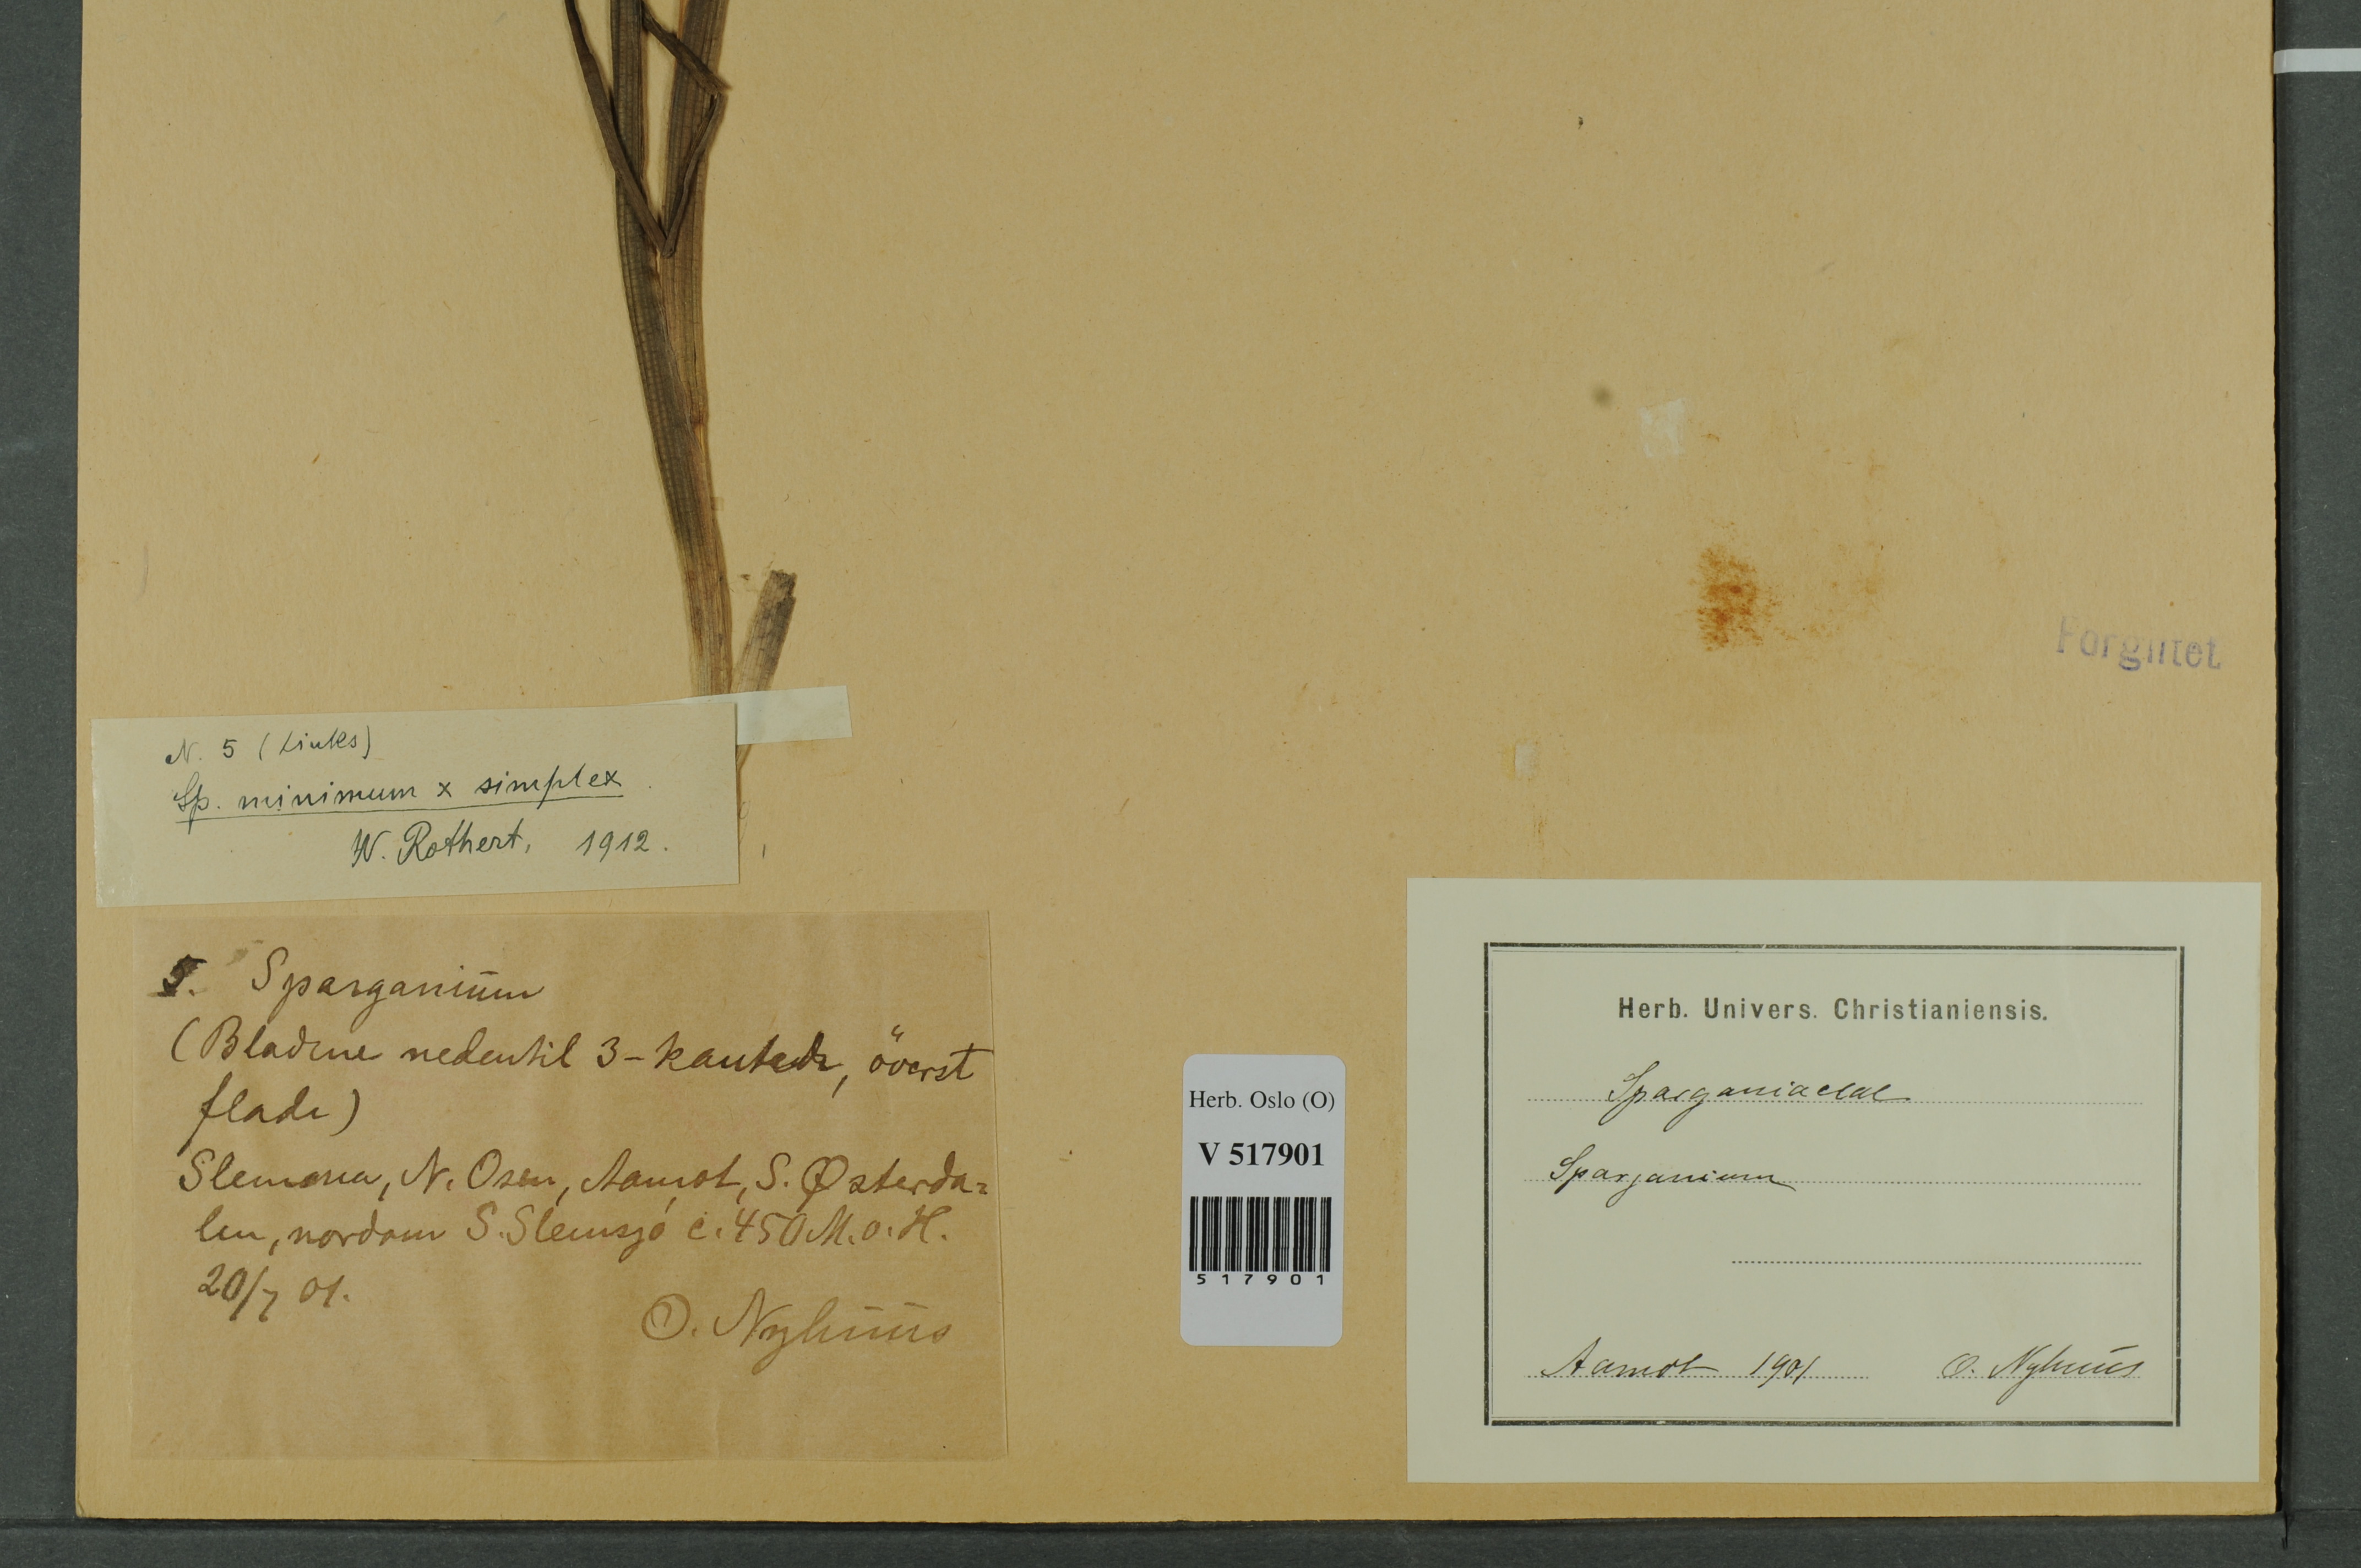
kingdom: Plantae
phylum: Tracheophyta
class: Liliopsida
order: Poales
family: Typhaceae
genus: Sparganium
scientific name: Sparganium
